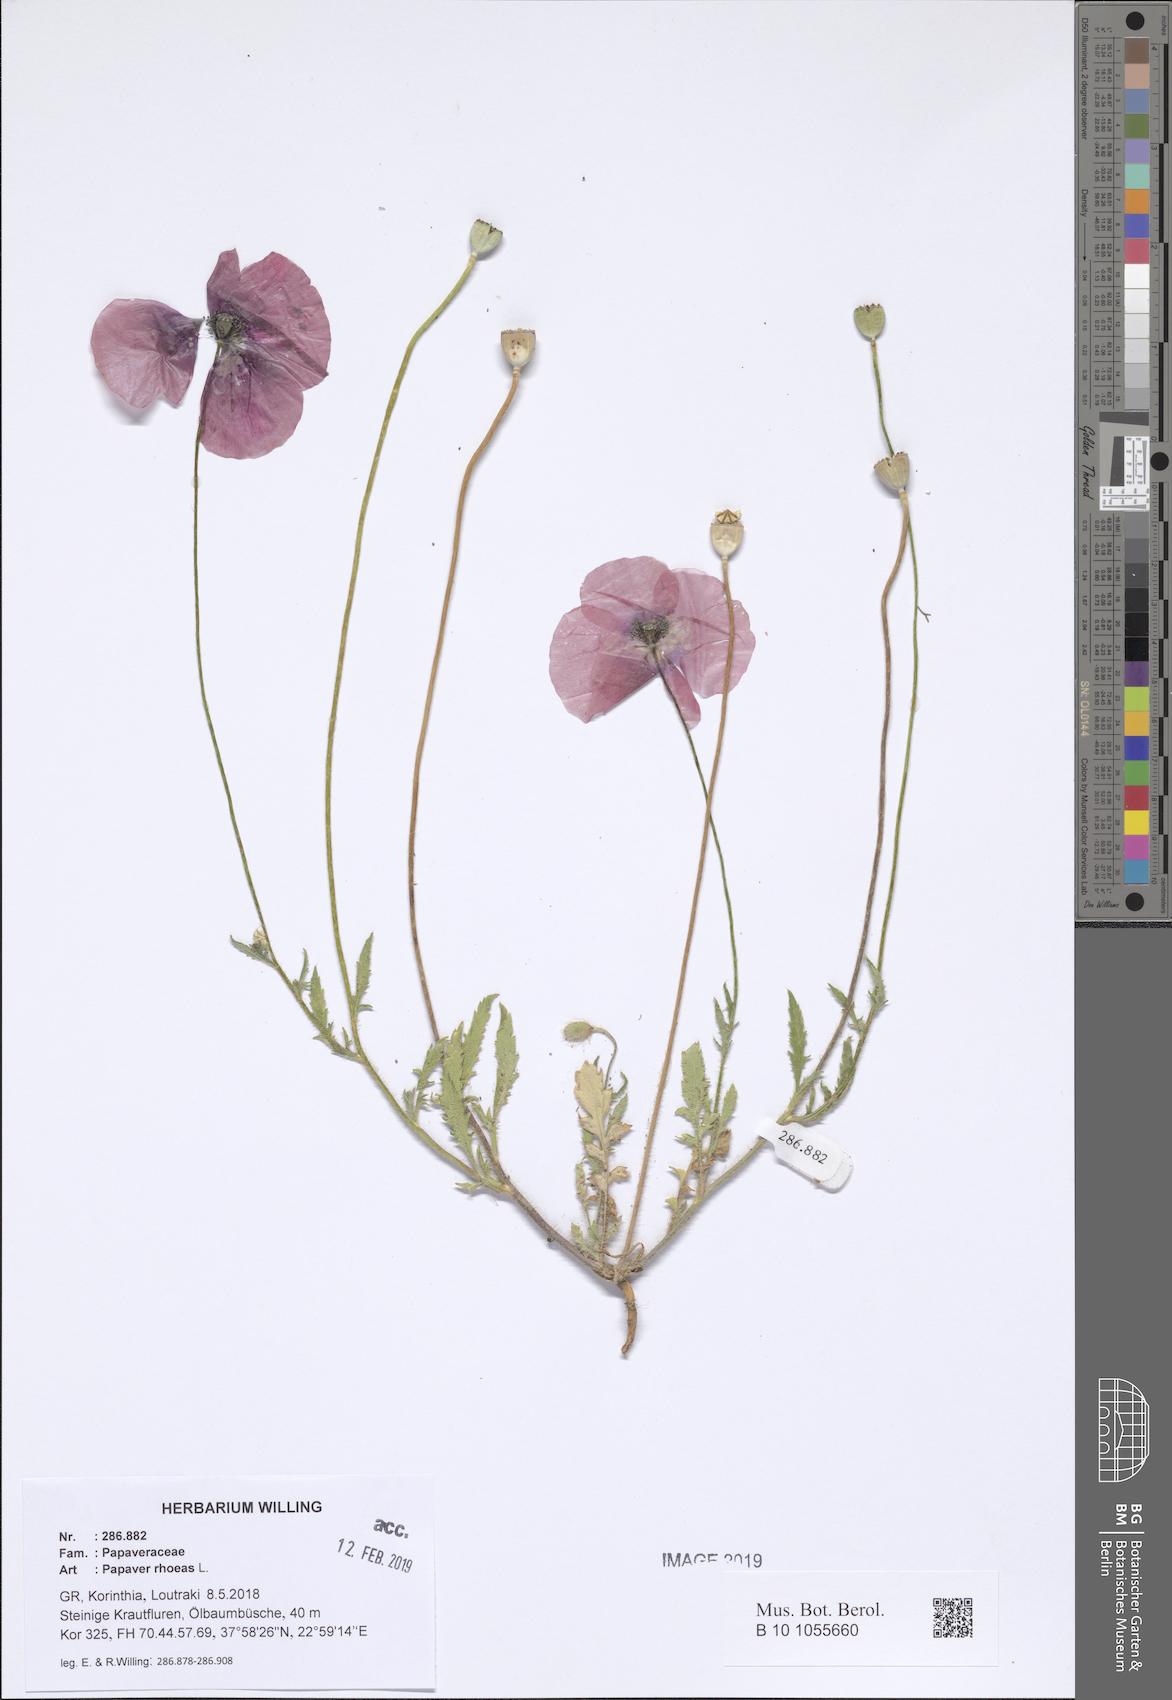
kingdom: Plantae
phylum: Tracheophyta
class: Magnoliopsida
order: Ranunculales
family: Papaveraceae
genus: Papaver
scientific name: Papaver rhoeas
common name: Corn poppy
